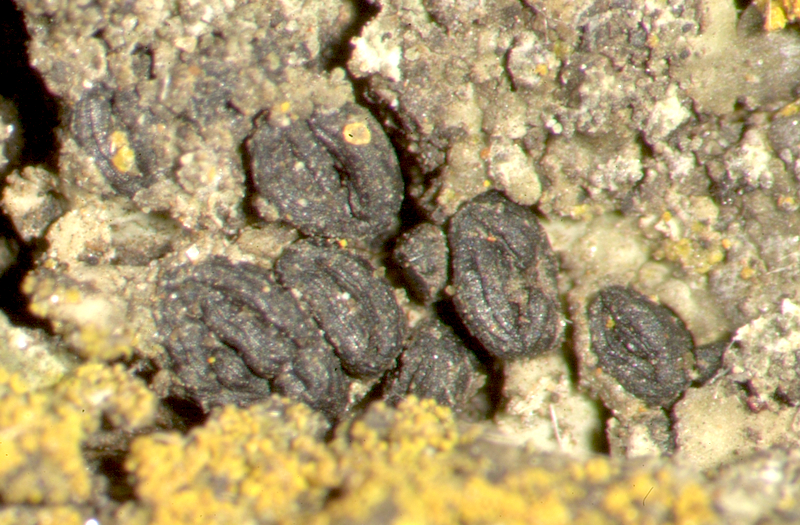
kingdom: Fungi
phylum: Ascomycota
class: Lecanoromycetes
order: Teloschistales
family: Teloschistaceae
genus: Flavoplaca
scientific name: Flavoplaca citrina
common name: Mealy firedot lichen
